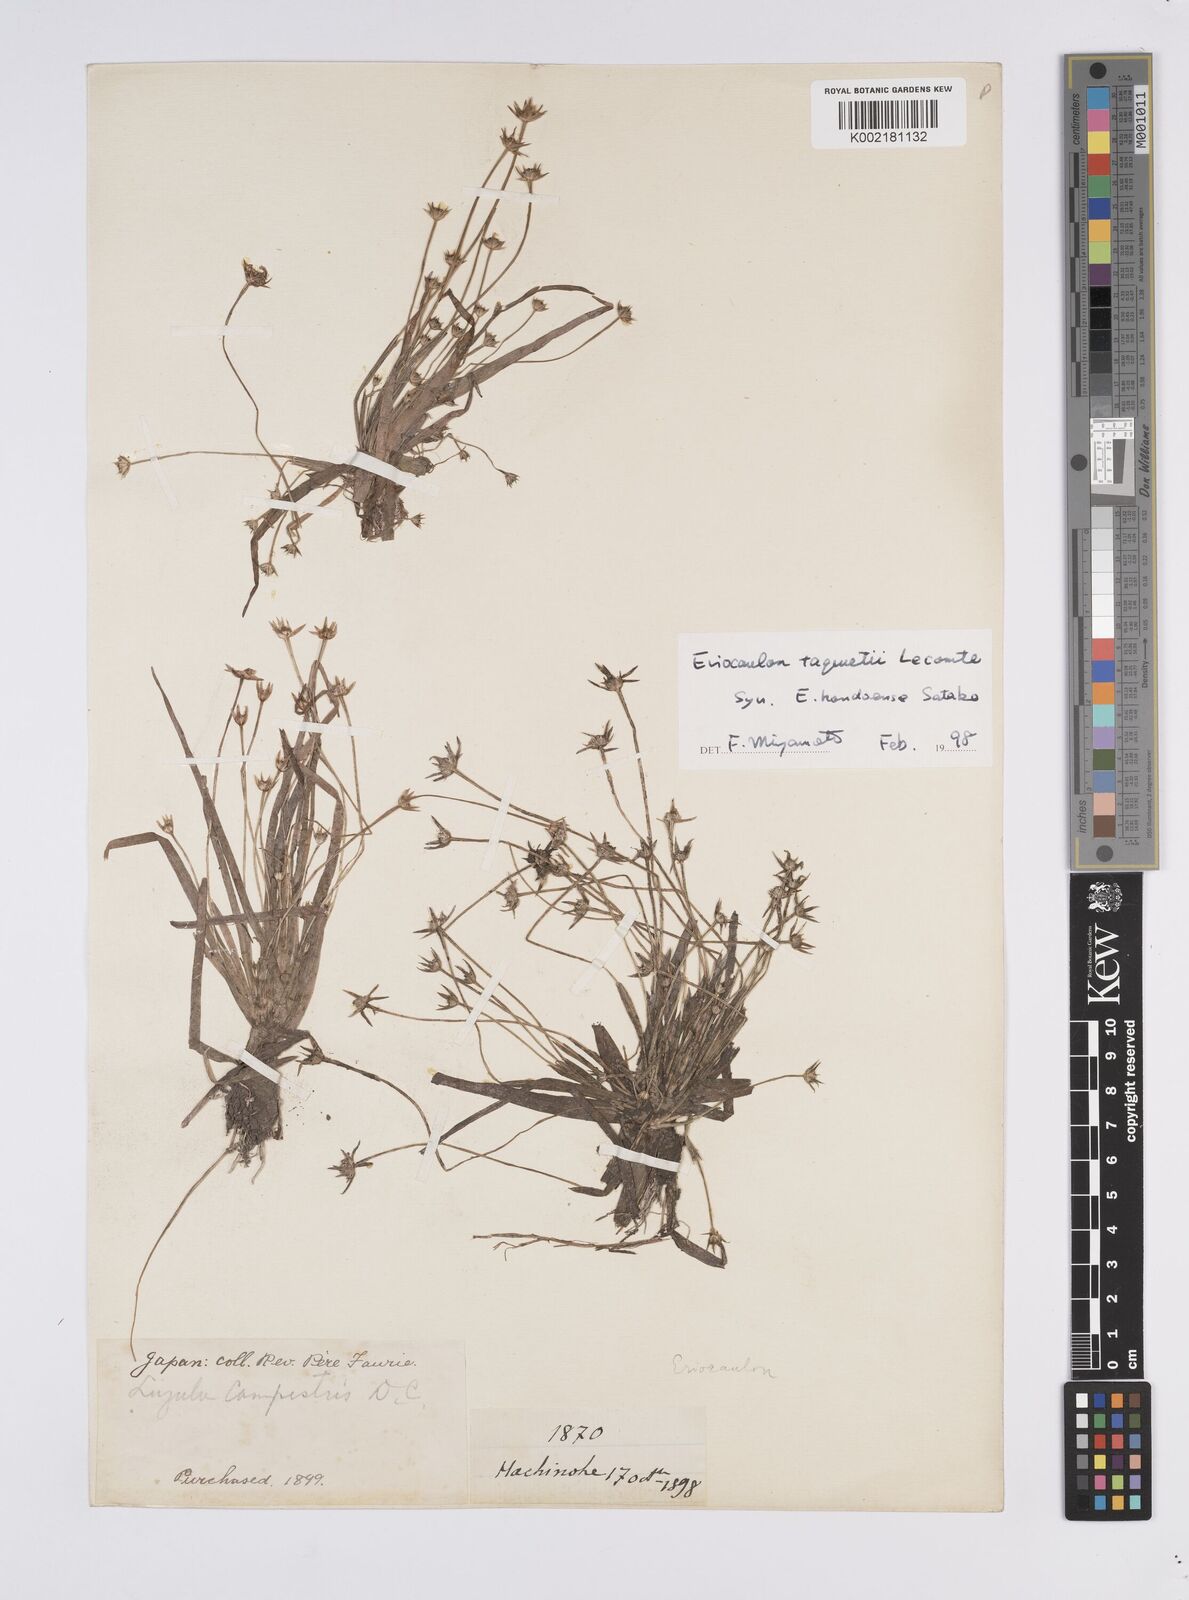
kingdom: Plantae
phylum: Tracheophyta
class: Liliopsida
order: Poales
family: Eriocaulaceae
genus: Eriocaulon
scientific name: Eriocaulon taquetii
